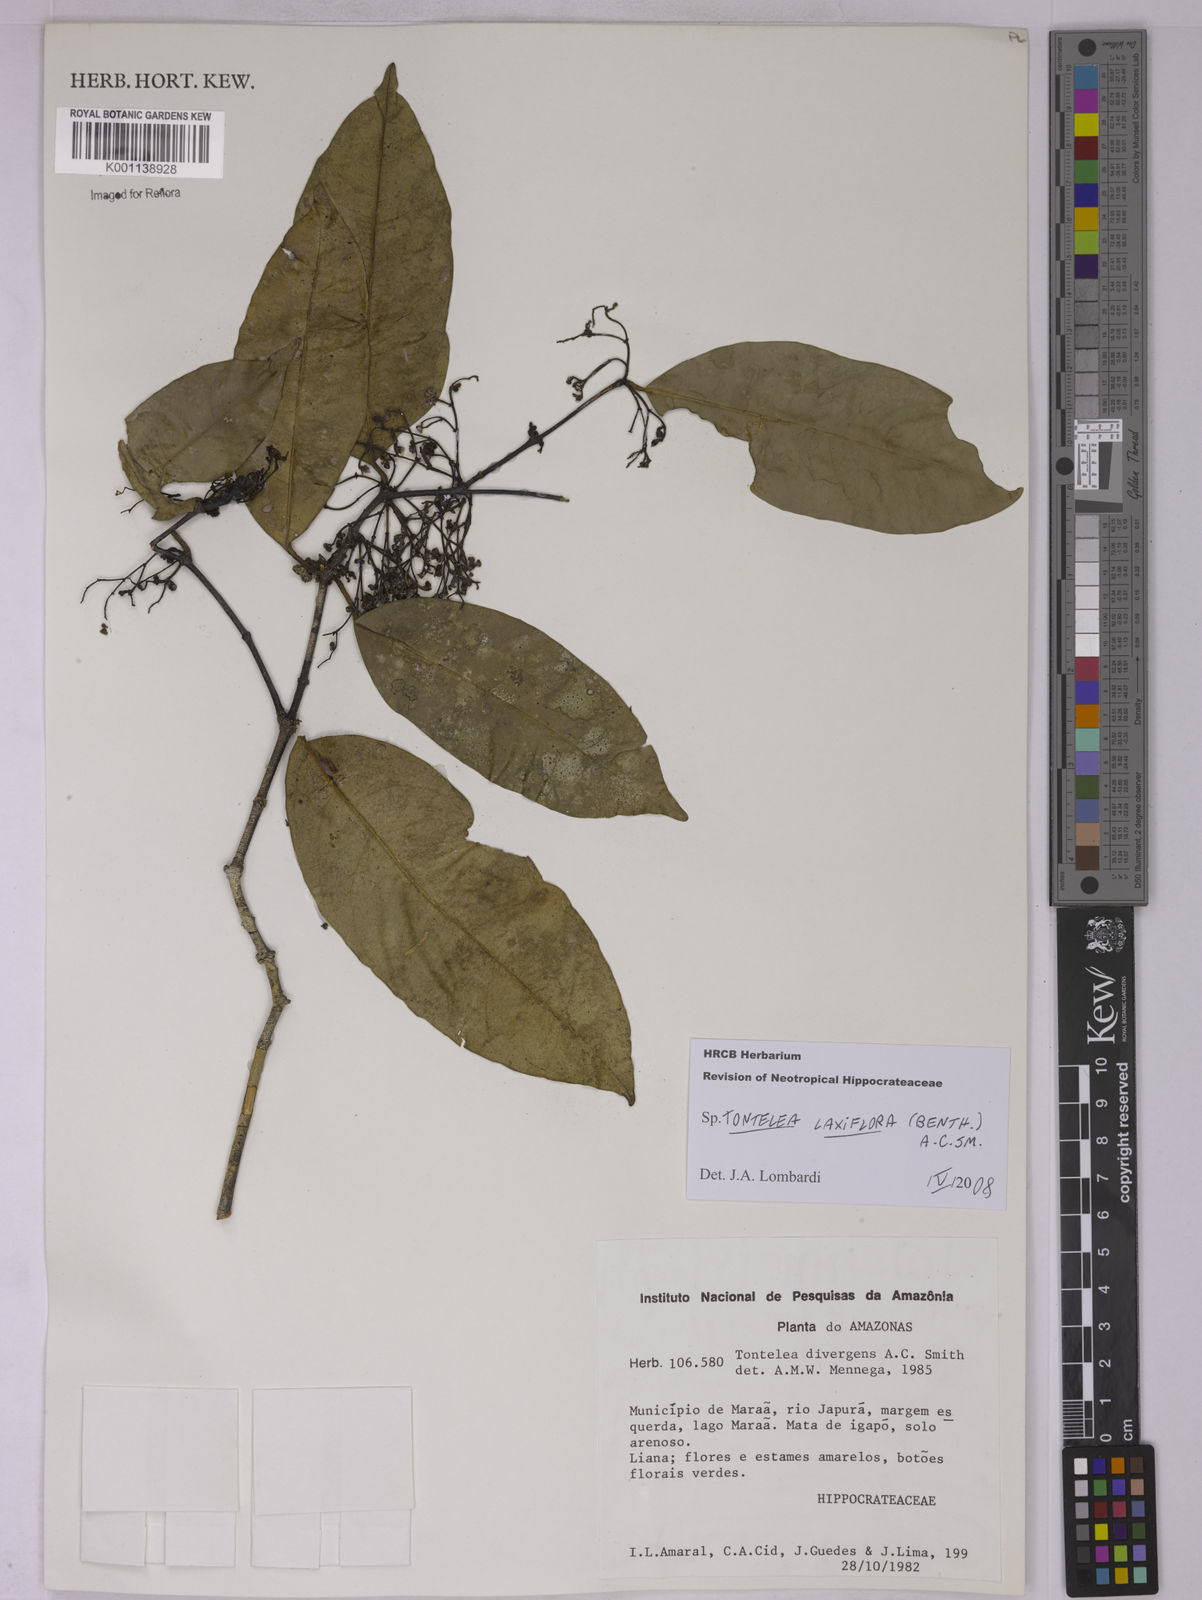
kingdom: Plantae
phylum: Tracheophyta
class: Magnoliopsida
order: Celastrales
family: Celastraceae
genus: Tontelea
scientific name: Tontelea laxiflora
